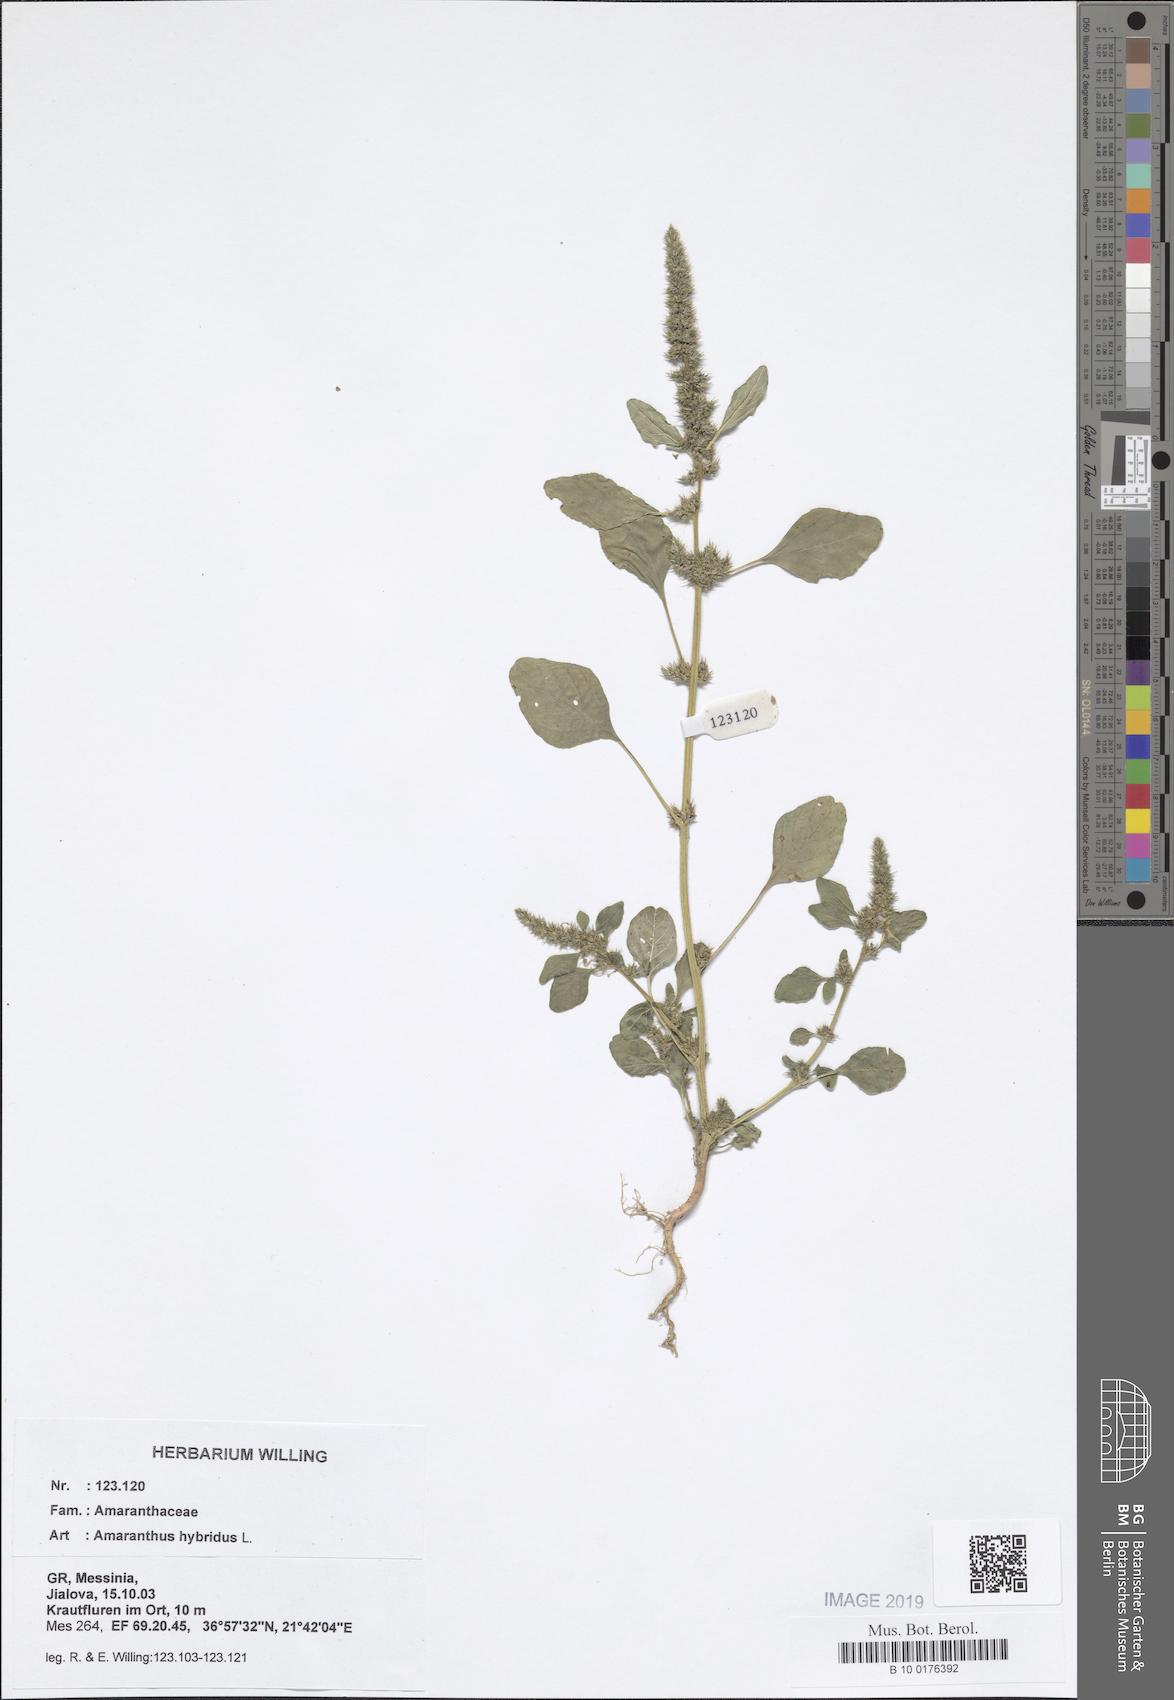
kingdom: Plantae
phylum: Tracheophyta
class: Magnoliopsida
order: Caryophyllales
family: Amaranthaceae
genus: Amaranthus
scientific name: Amaranthus hybridus
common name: Green amaranth
